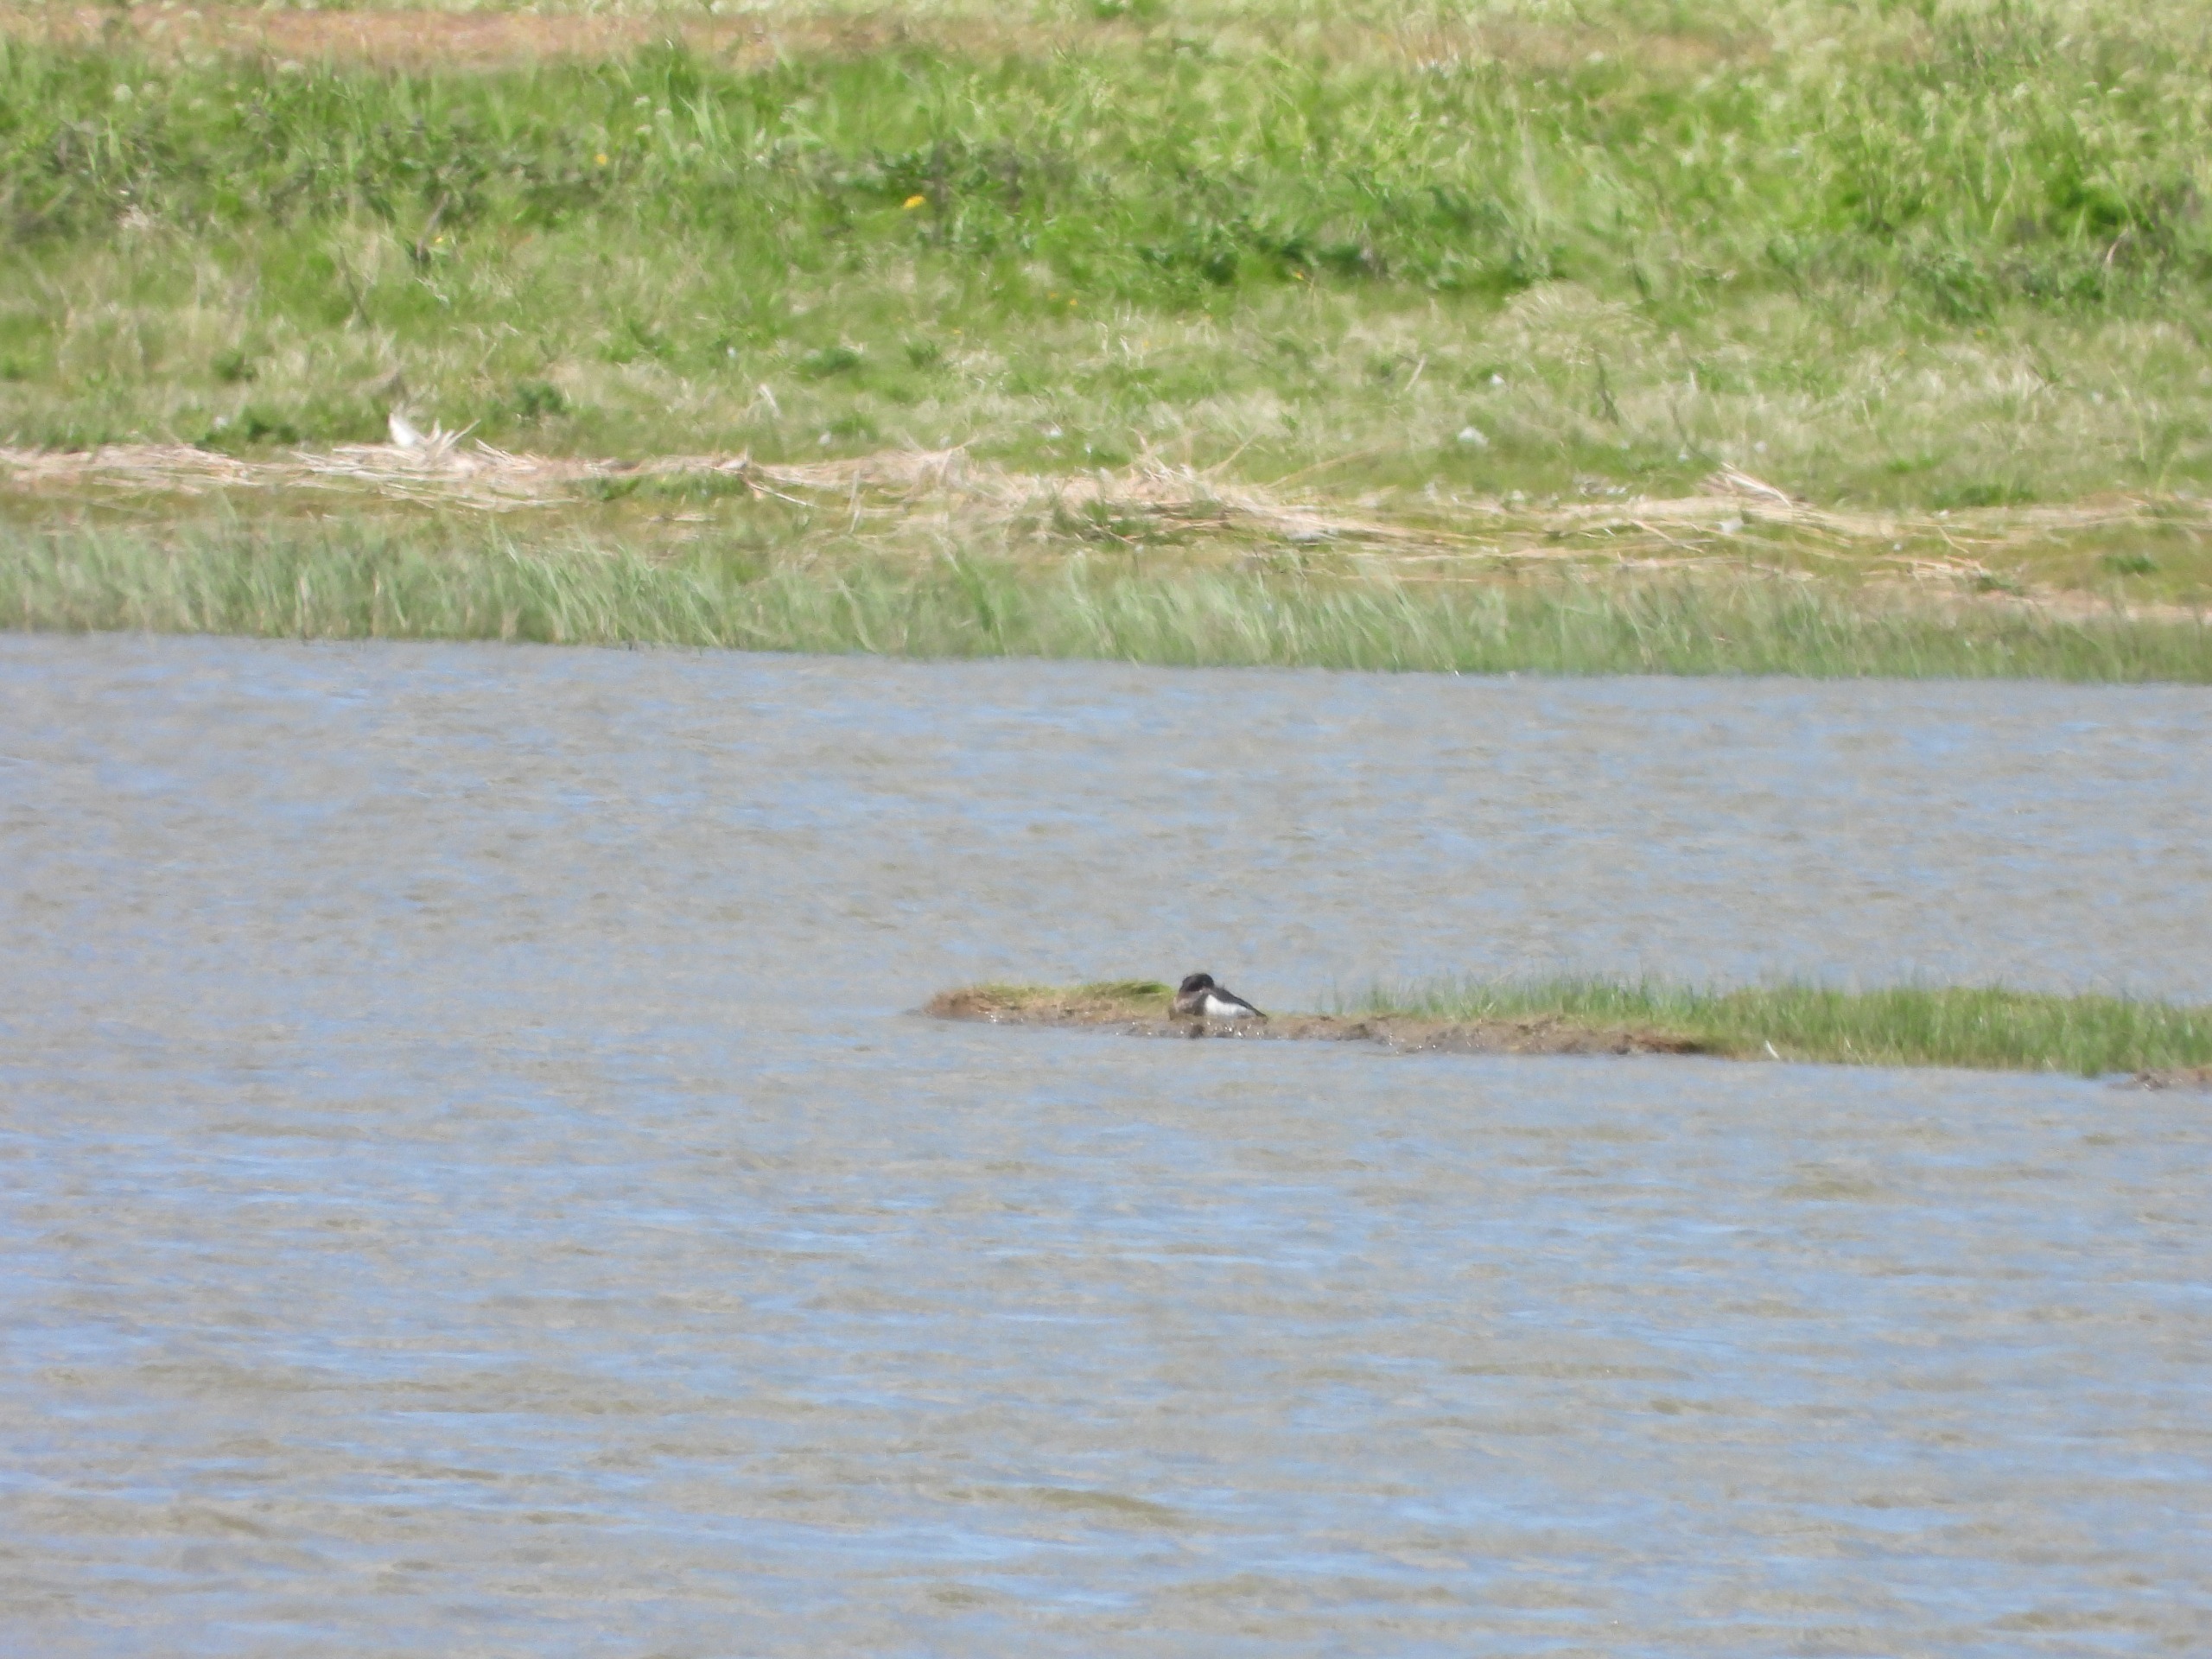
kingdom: Animalia
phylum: Chordata
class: Aves
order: Anseriformes
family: Anatidae
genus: Aythya
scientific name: Aythya fuligula
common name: Troldand
